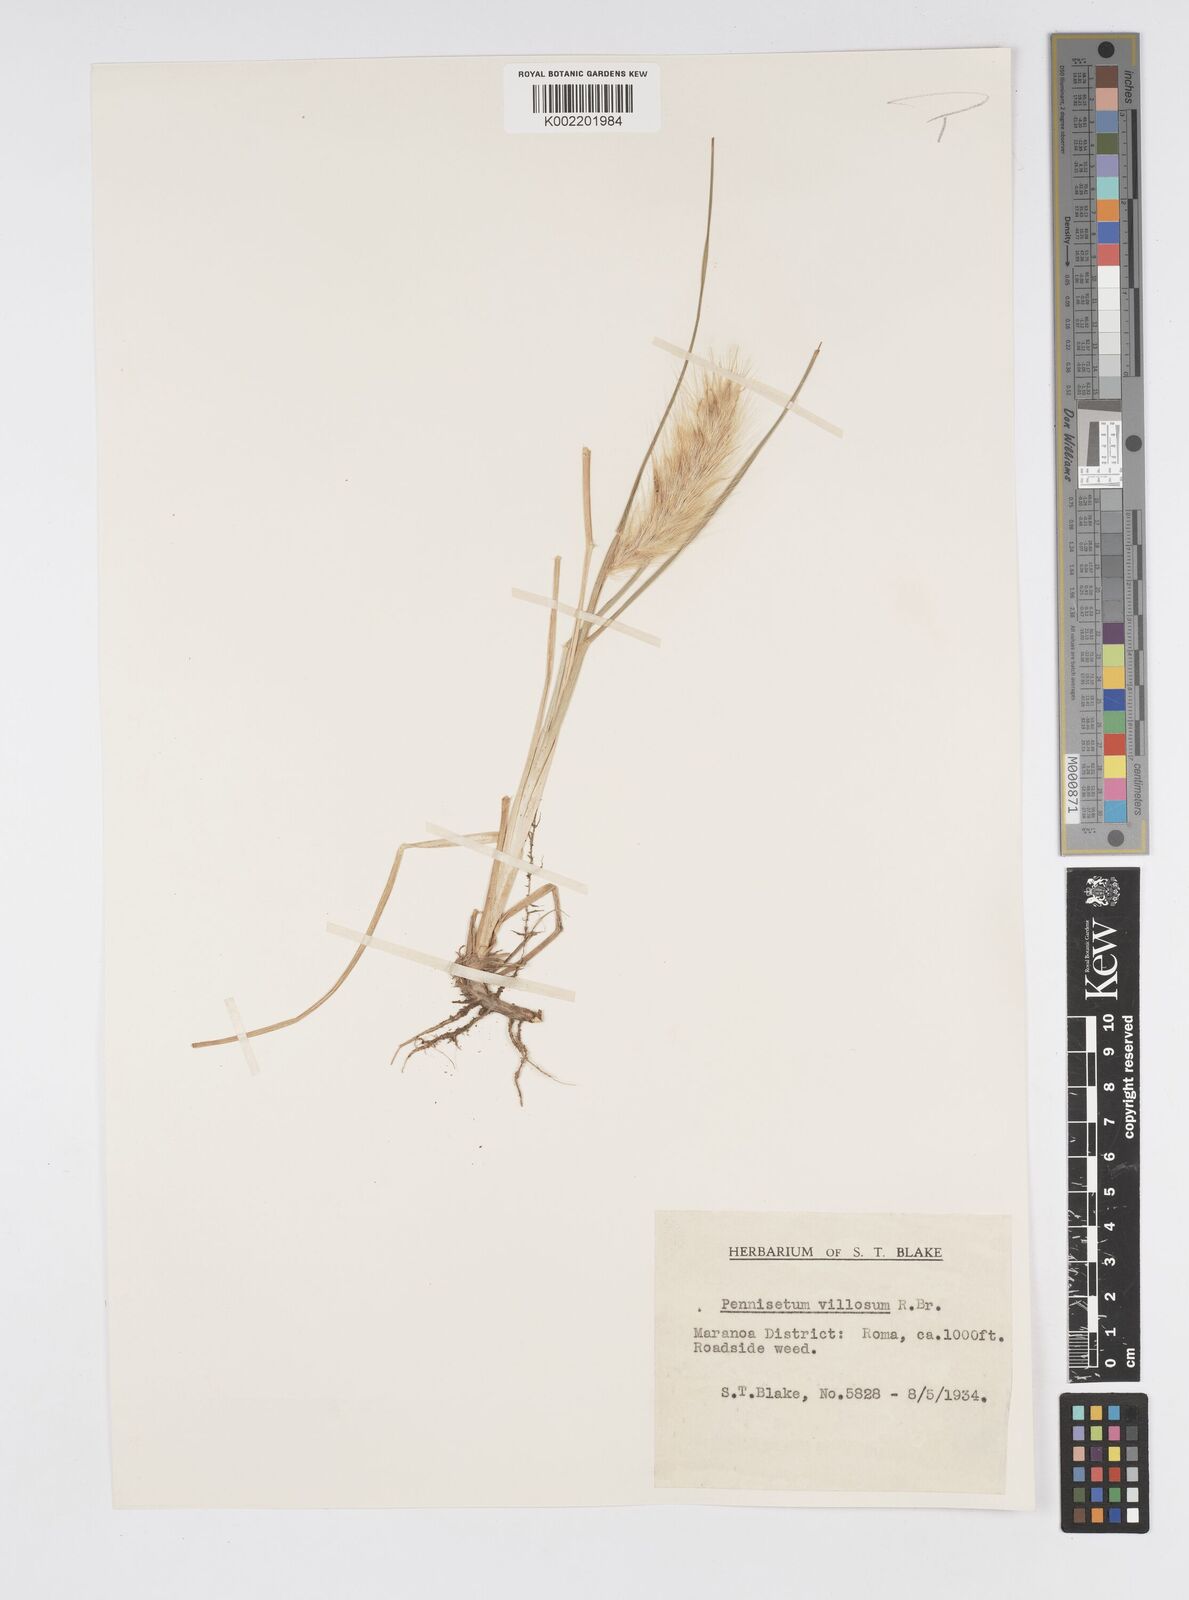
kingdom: Plantae
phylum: Tracheophyta
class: Liliopsida
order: Poales
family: Poaceae
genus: Cenchrus
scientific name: Cenchrus longisetus
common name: Feathertop
